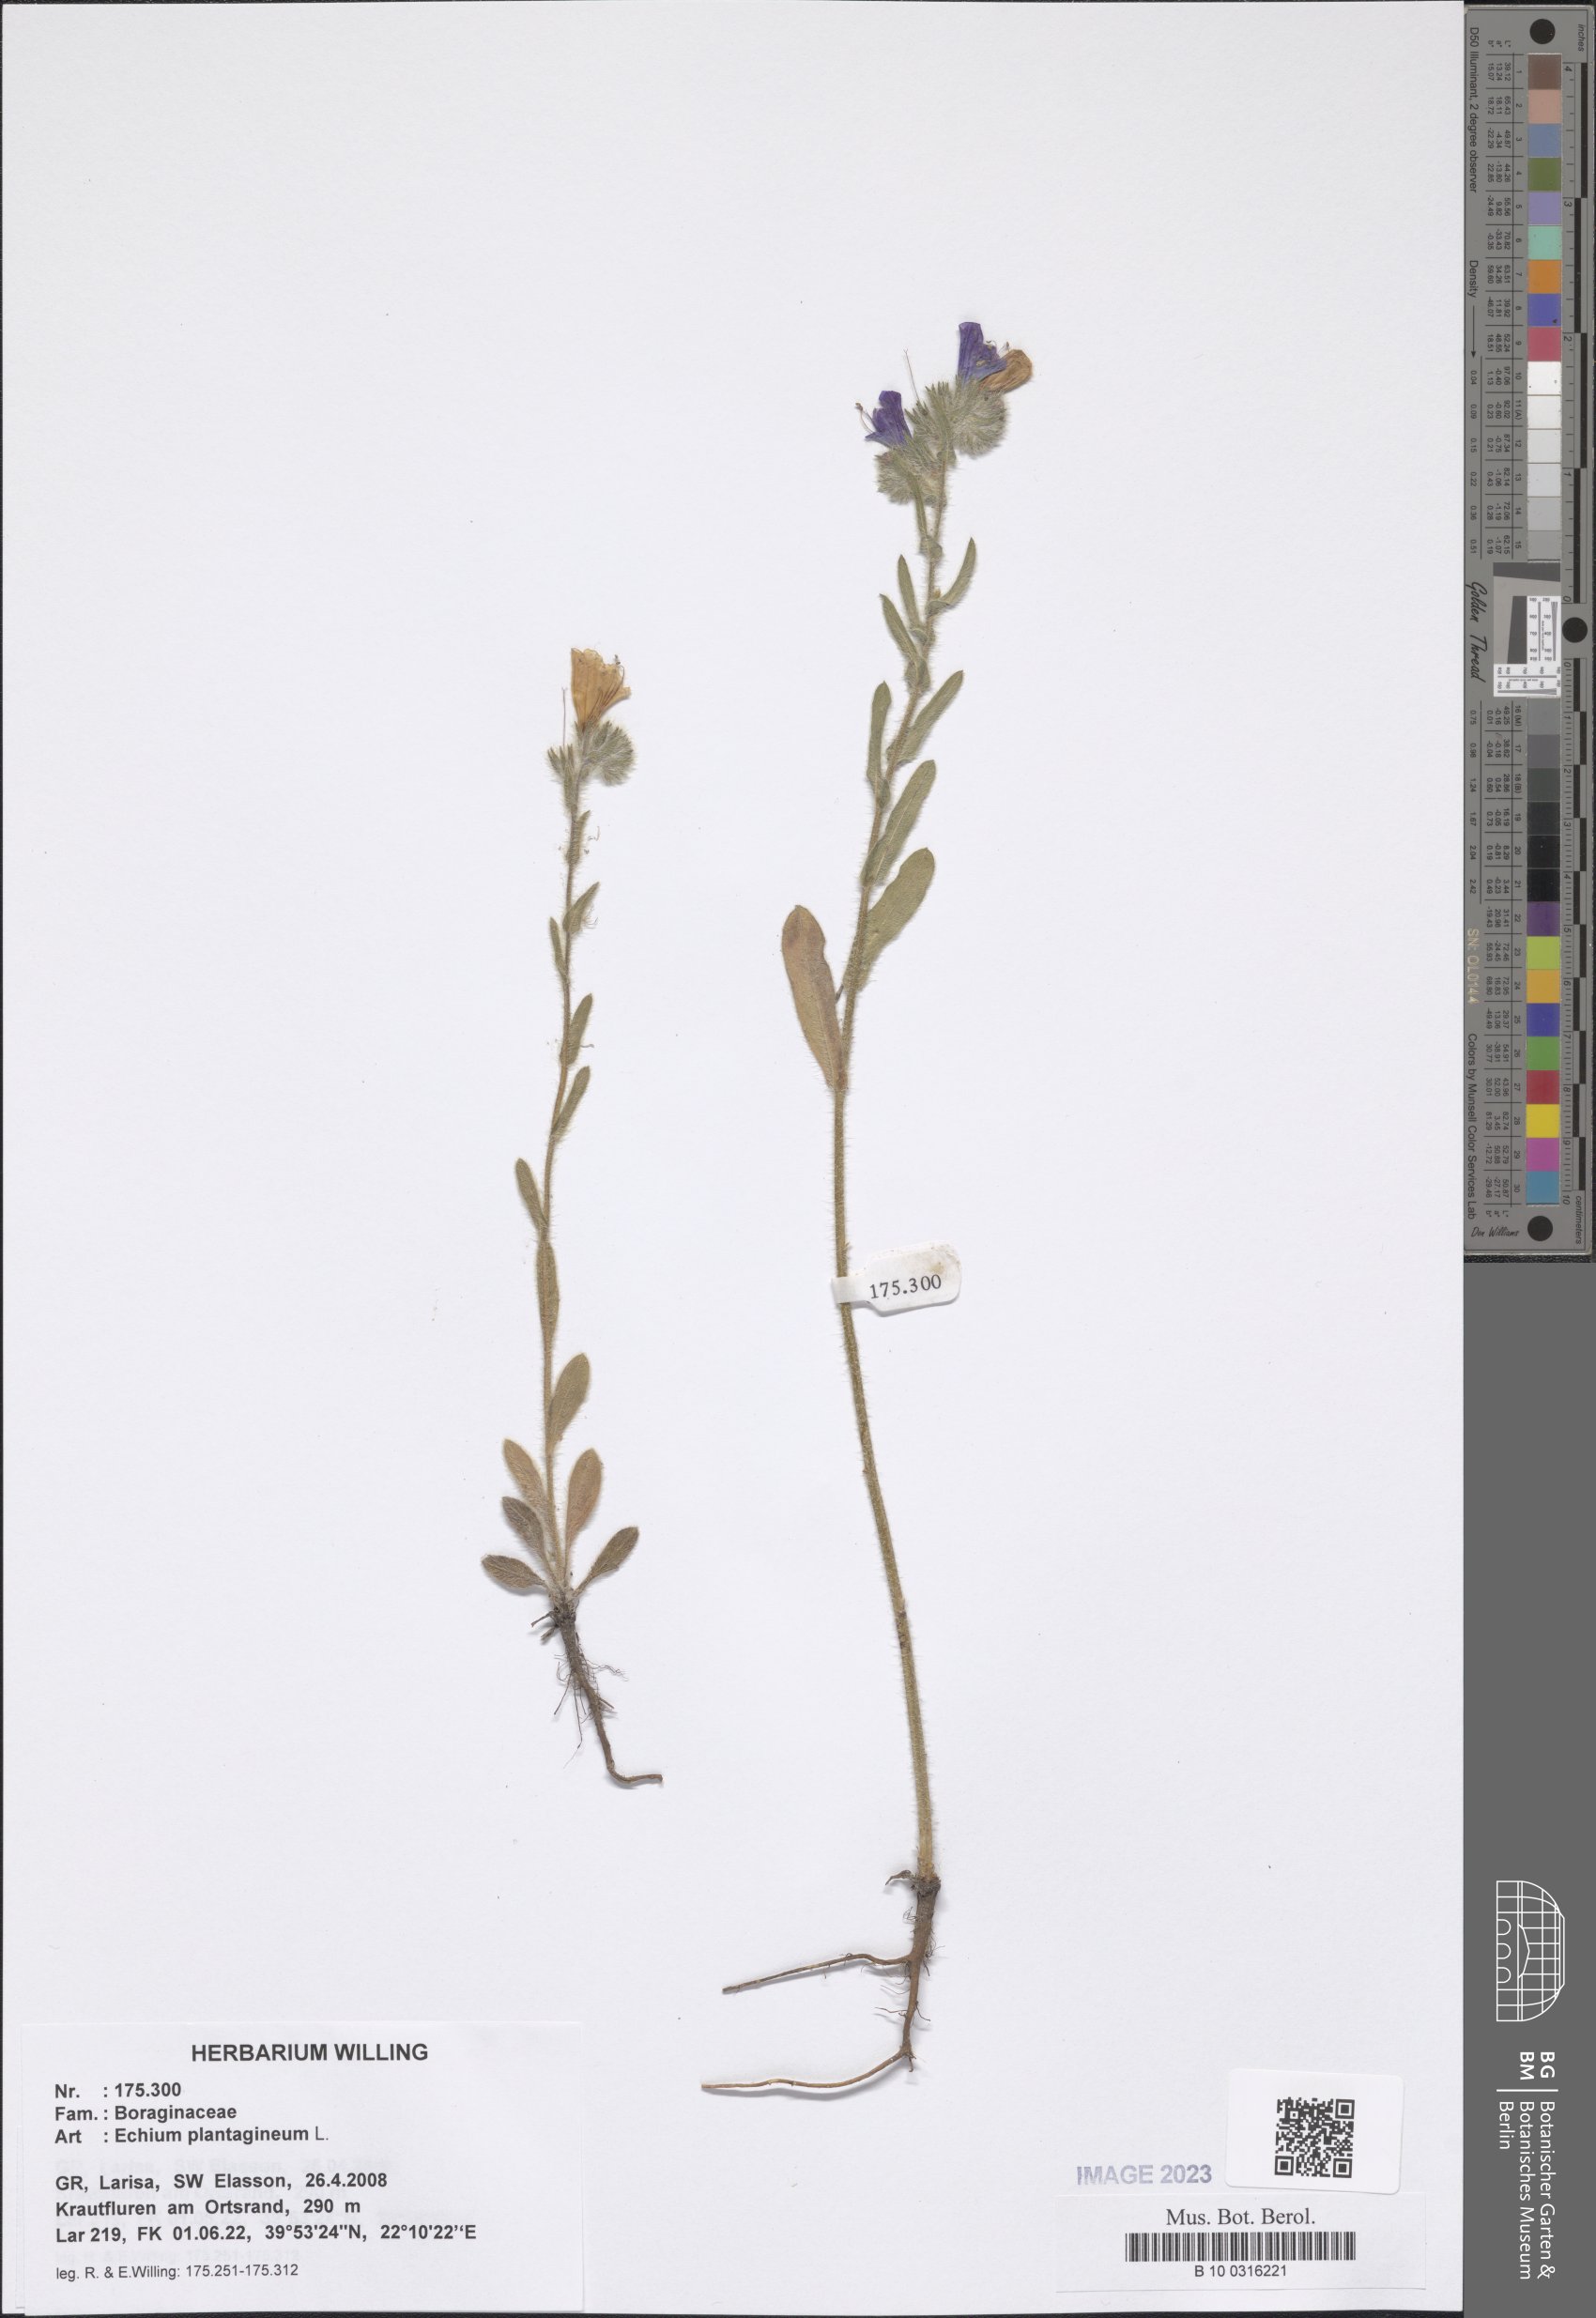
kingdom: Plantae
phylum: Tracheophyta
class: Magnoliopsida
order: Boraginales
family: Boraginaceae
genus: Echium
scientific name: Echium plantagineum
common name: Purple viper's-bugloss
